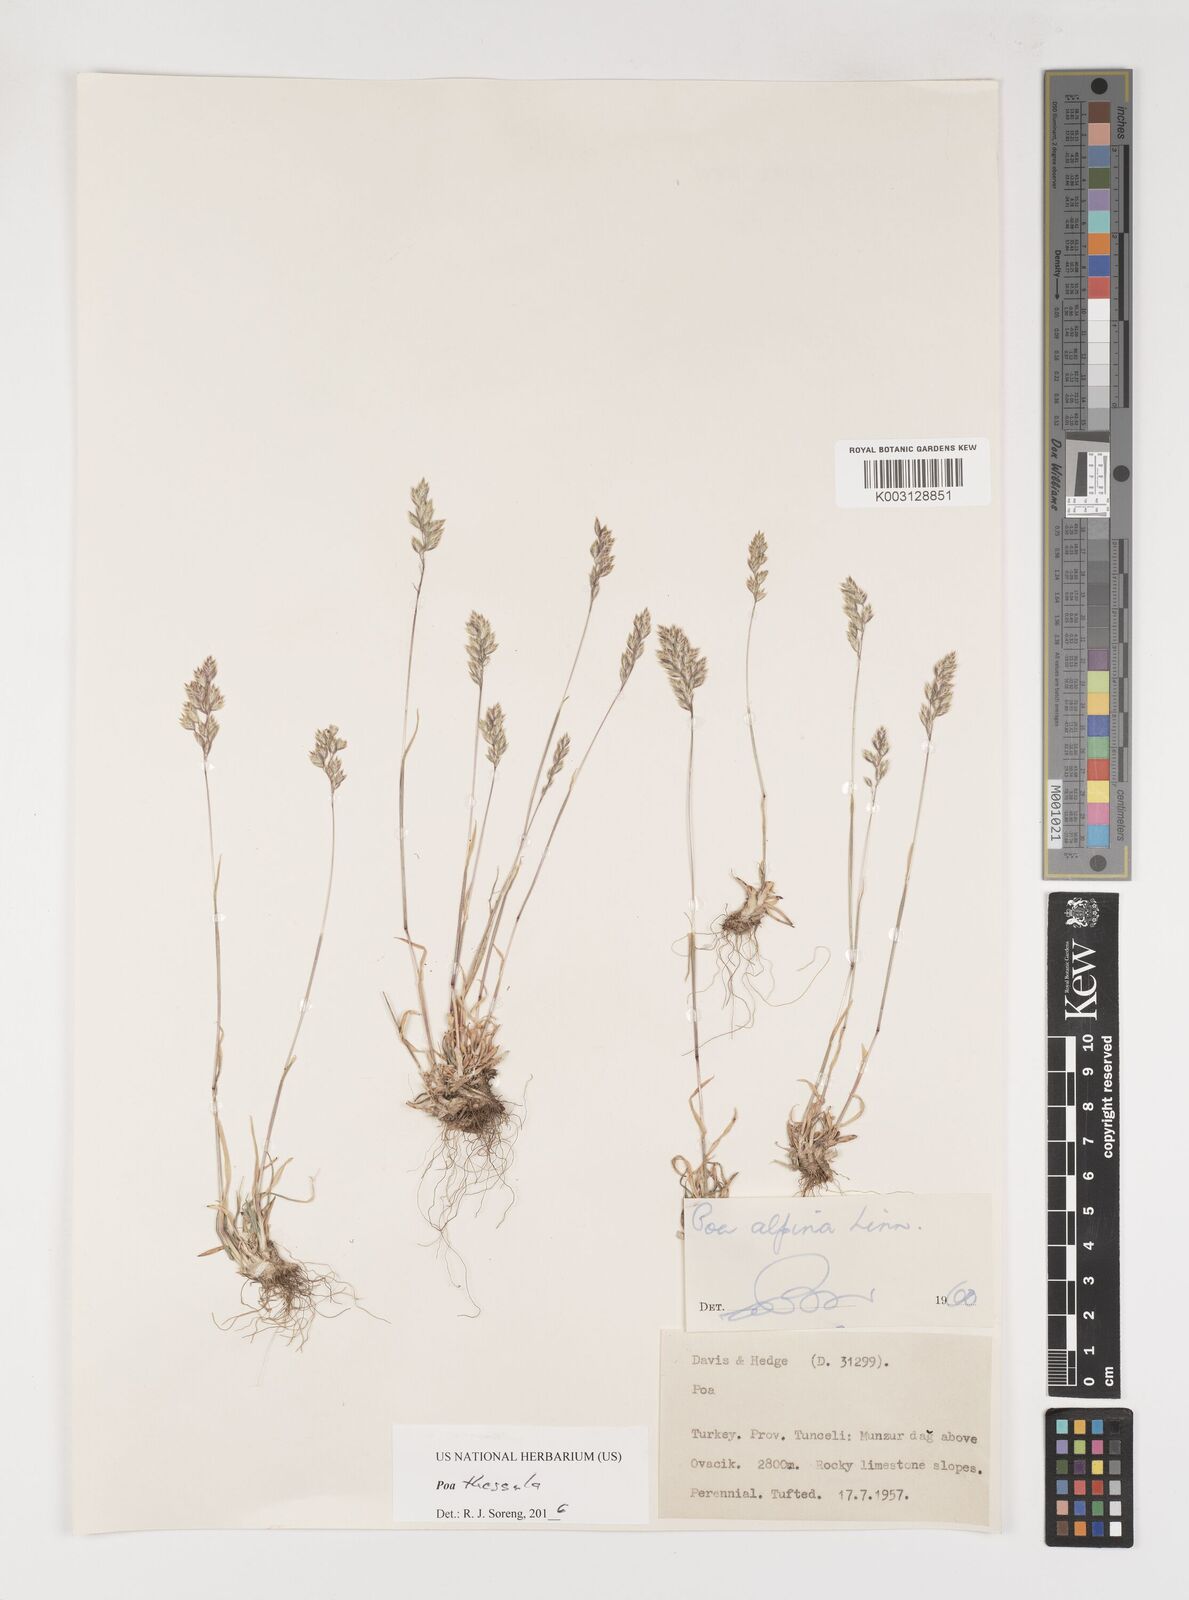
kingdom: Plantae
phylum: Tracheophyta
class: Liliopsida
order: Poales
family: Poaceae
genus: Poa
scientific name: Poa thessala
